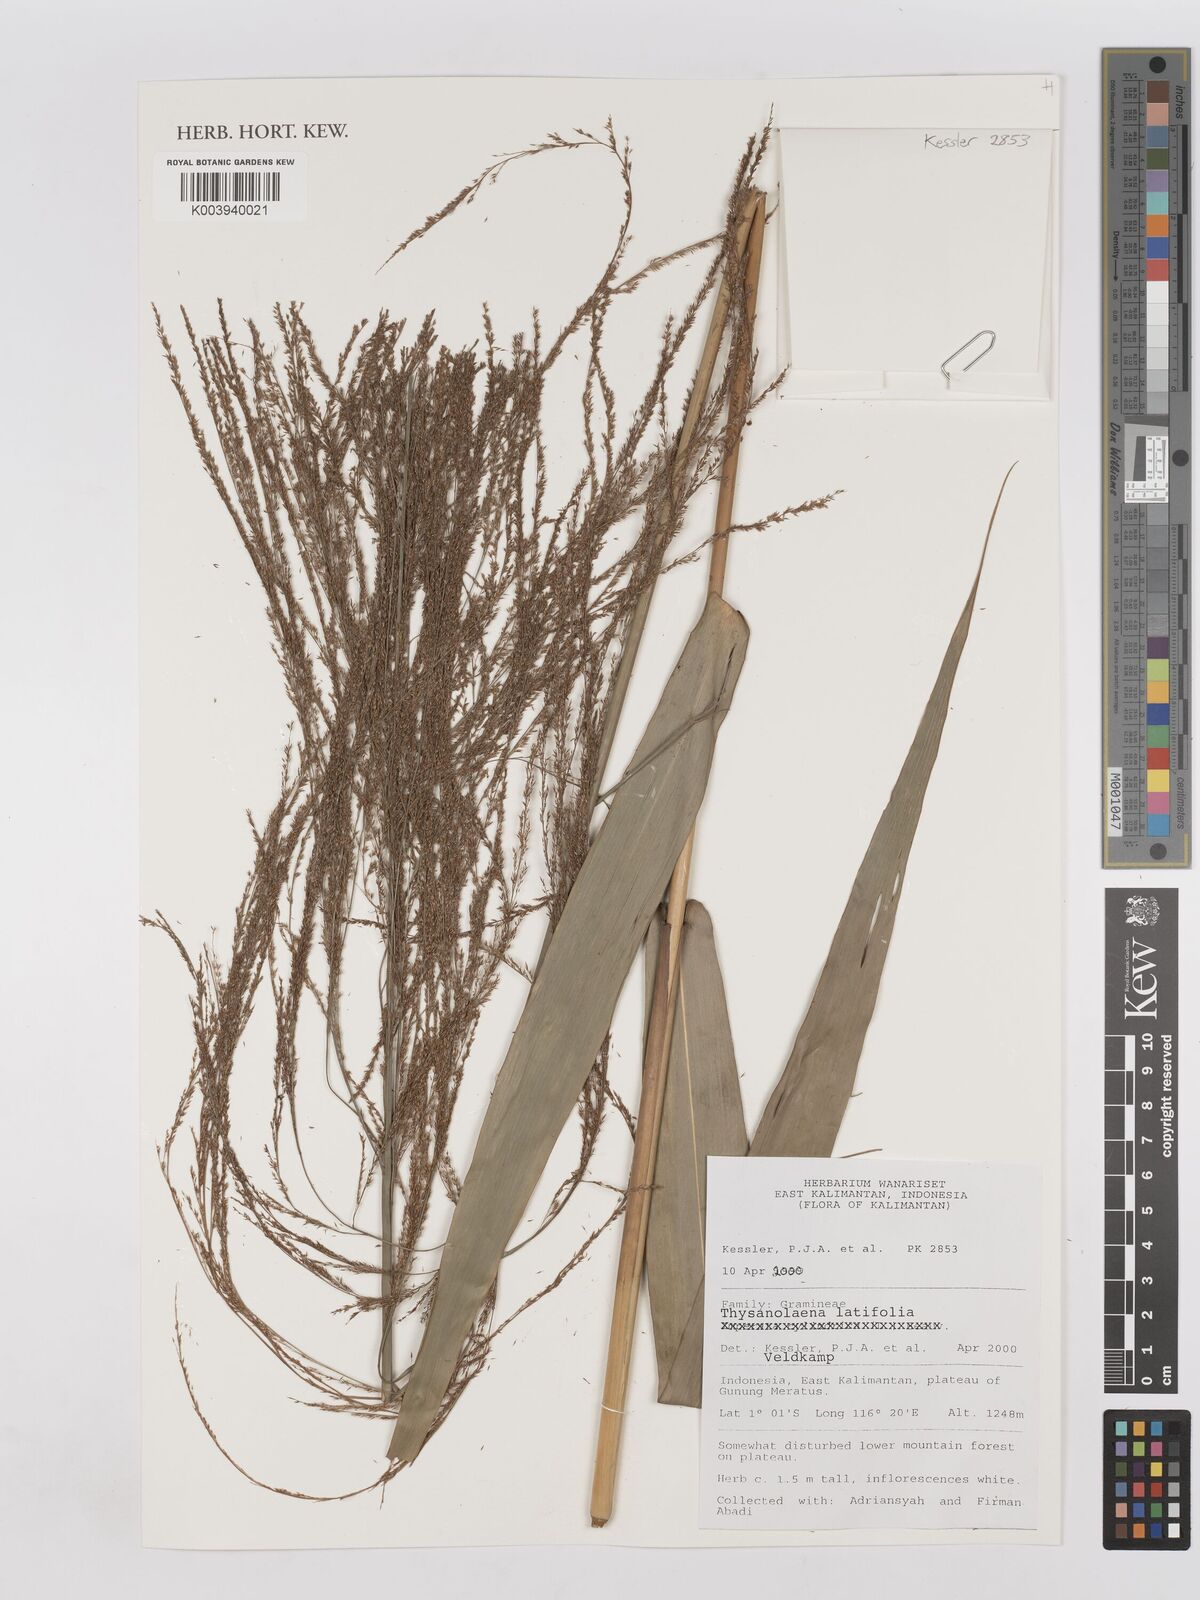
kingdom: Plantae
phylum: Tracheophyta
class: Liliopsida
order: Poales
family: Poaceae
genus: Thysanolaena
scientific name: Thysanolaena latifolia
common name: Tiger grass
